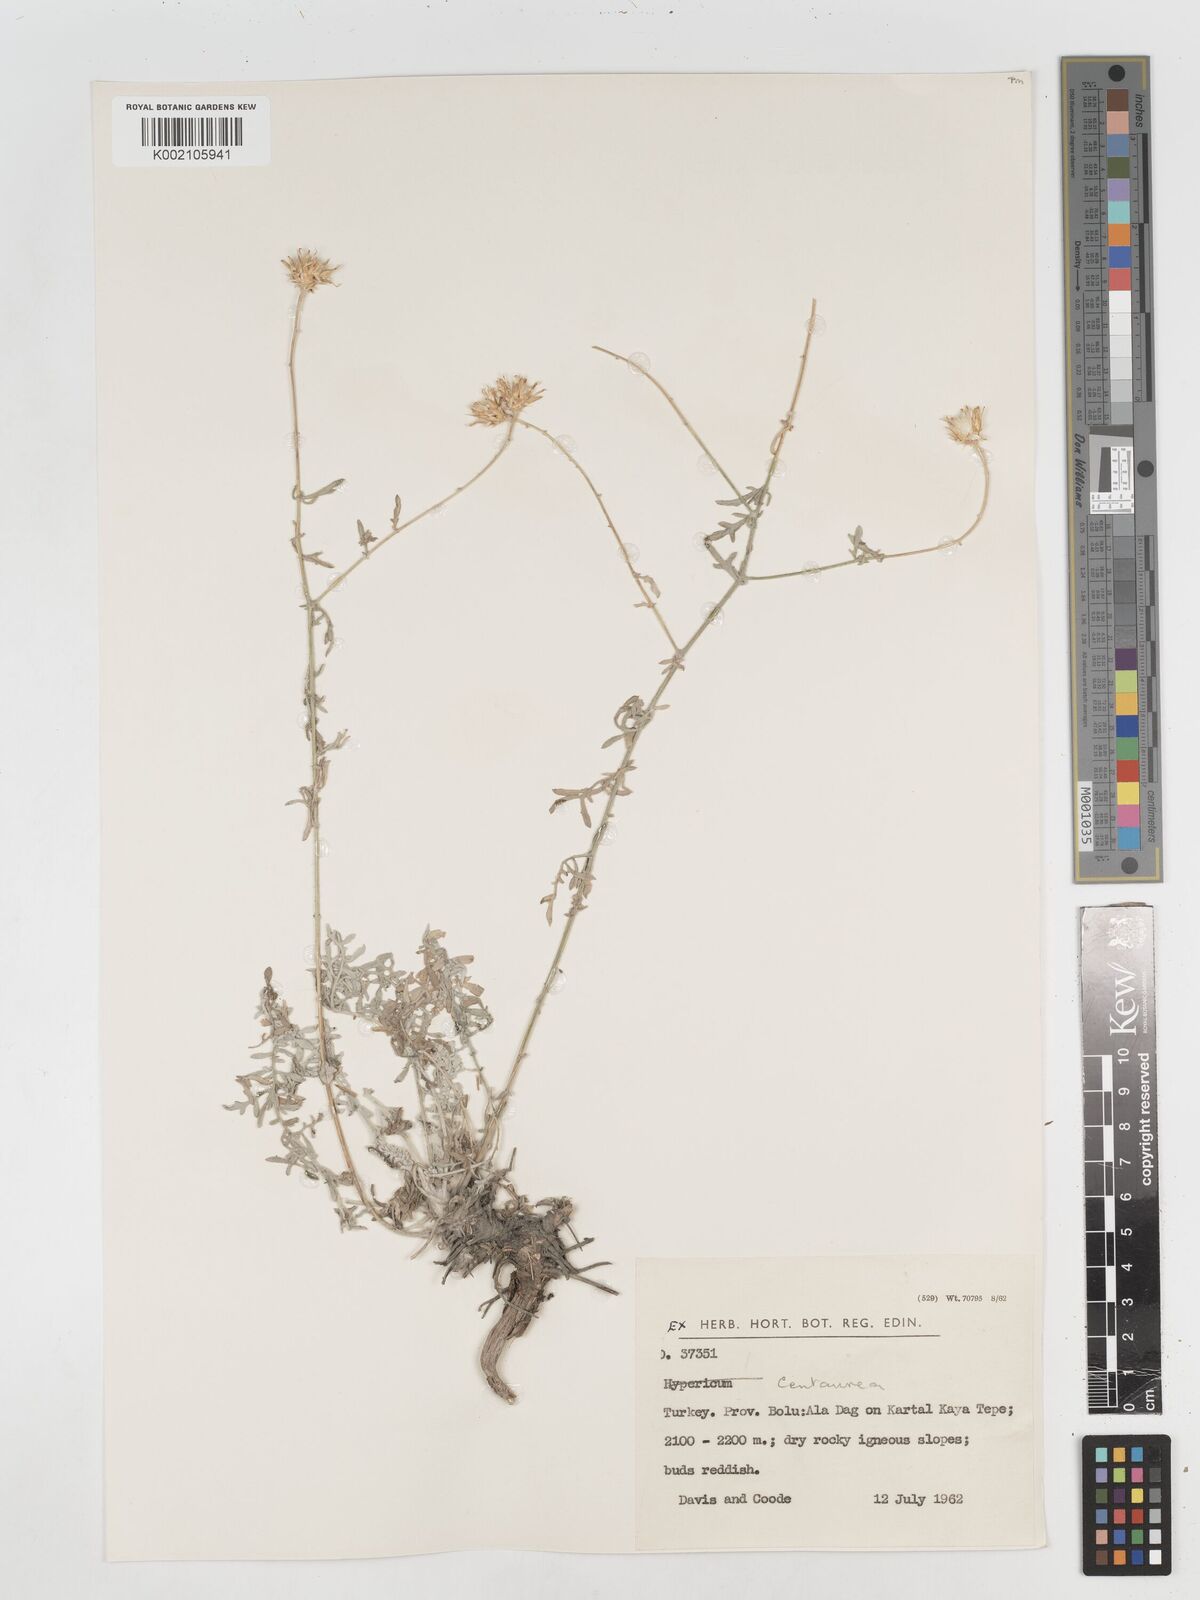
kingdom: Plantae
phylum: Tracheophyta
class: Magnoliopsida
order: Asterales
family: Asteraceae
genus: Centaurea
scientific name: Centaurea
